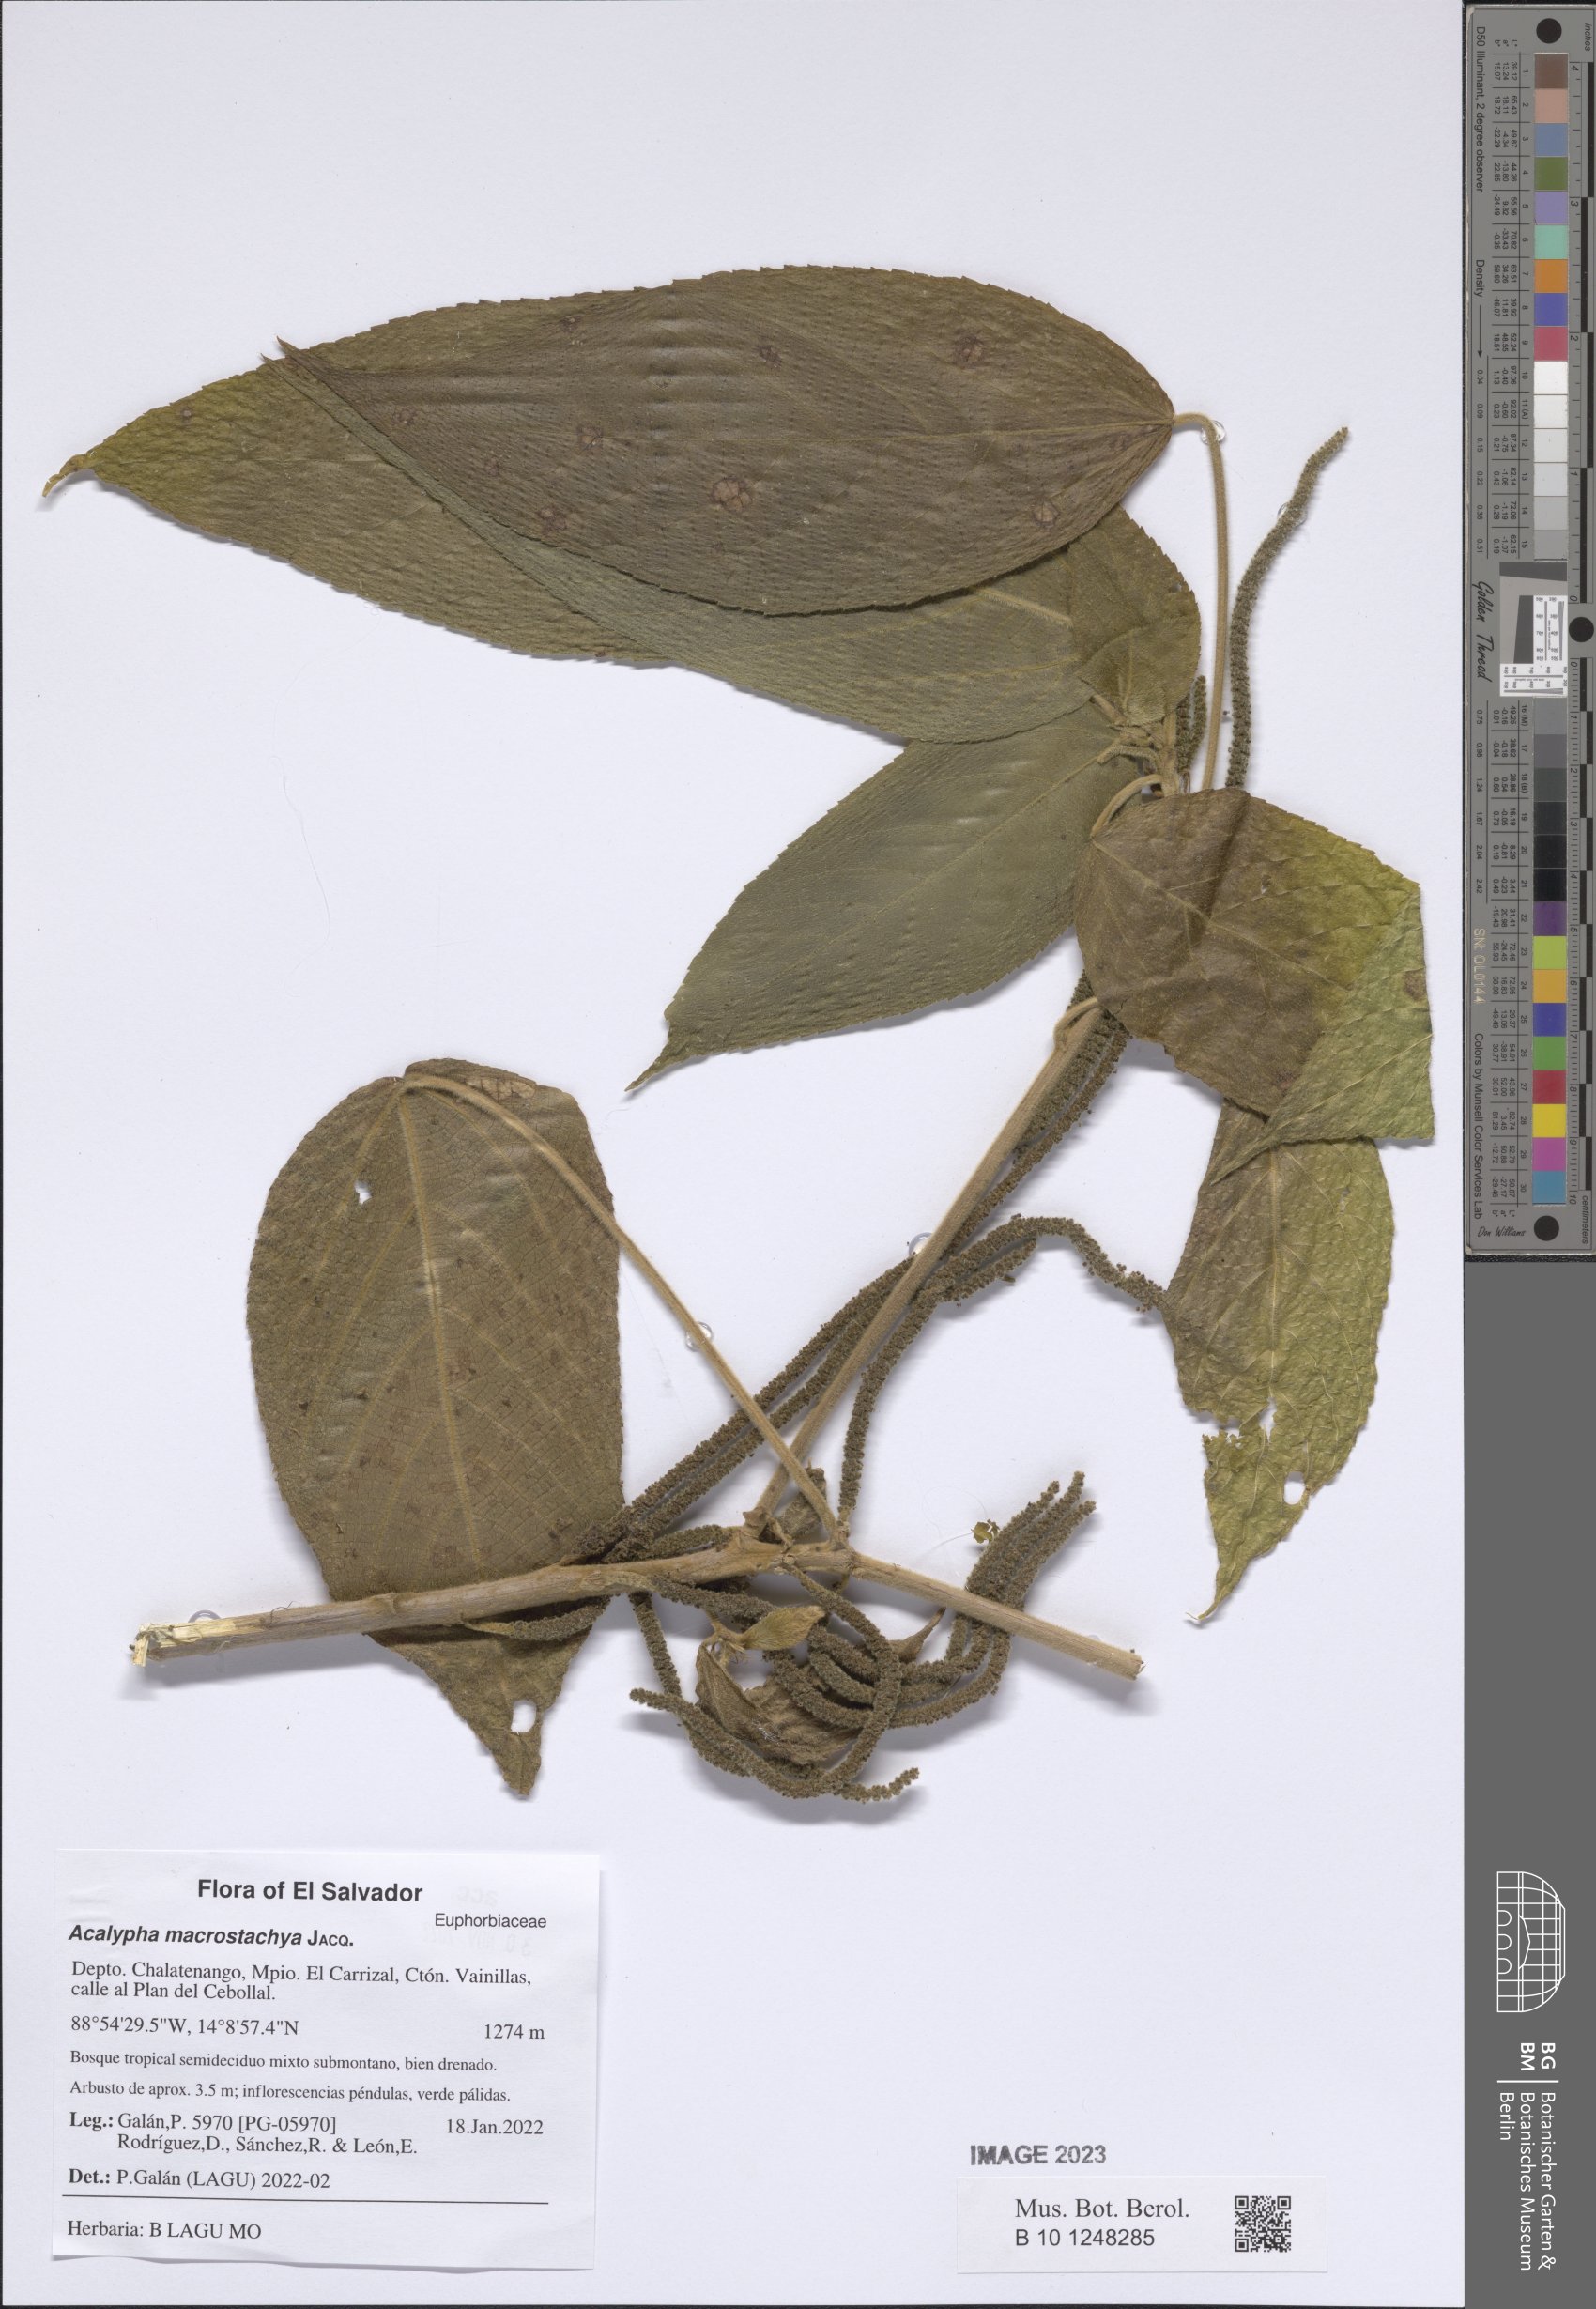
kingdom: Plantae
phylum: Tracheophyta
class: Magnoliopsida
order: Malpighiales
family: Euphorbiaceae
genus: Acalypha
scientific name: Acalypha macrostachya
